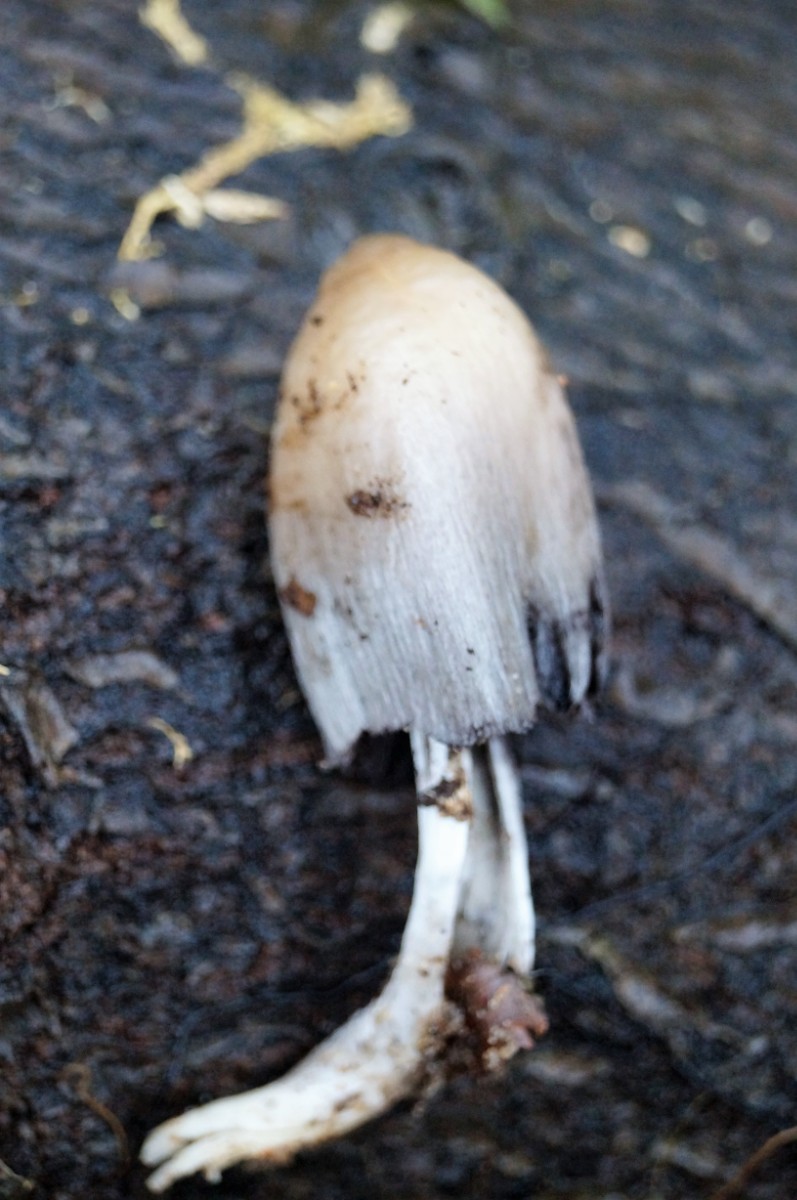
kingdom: Fungi
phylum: Basidiomycota
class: Agaricomycetes
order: Agaricales
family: Psathyrellaceae
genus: Coprinellus
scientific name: Coprinellus
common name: blækhat
